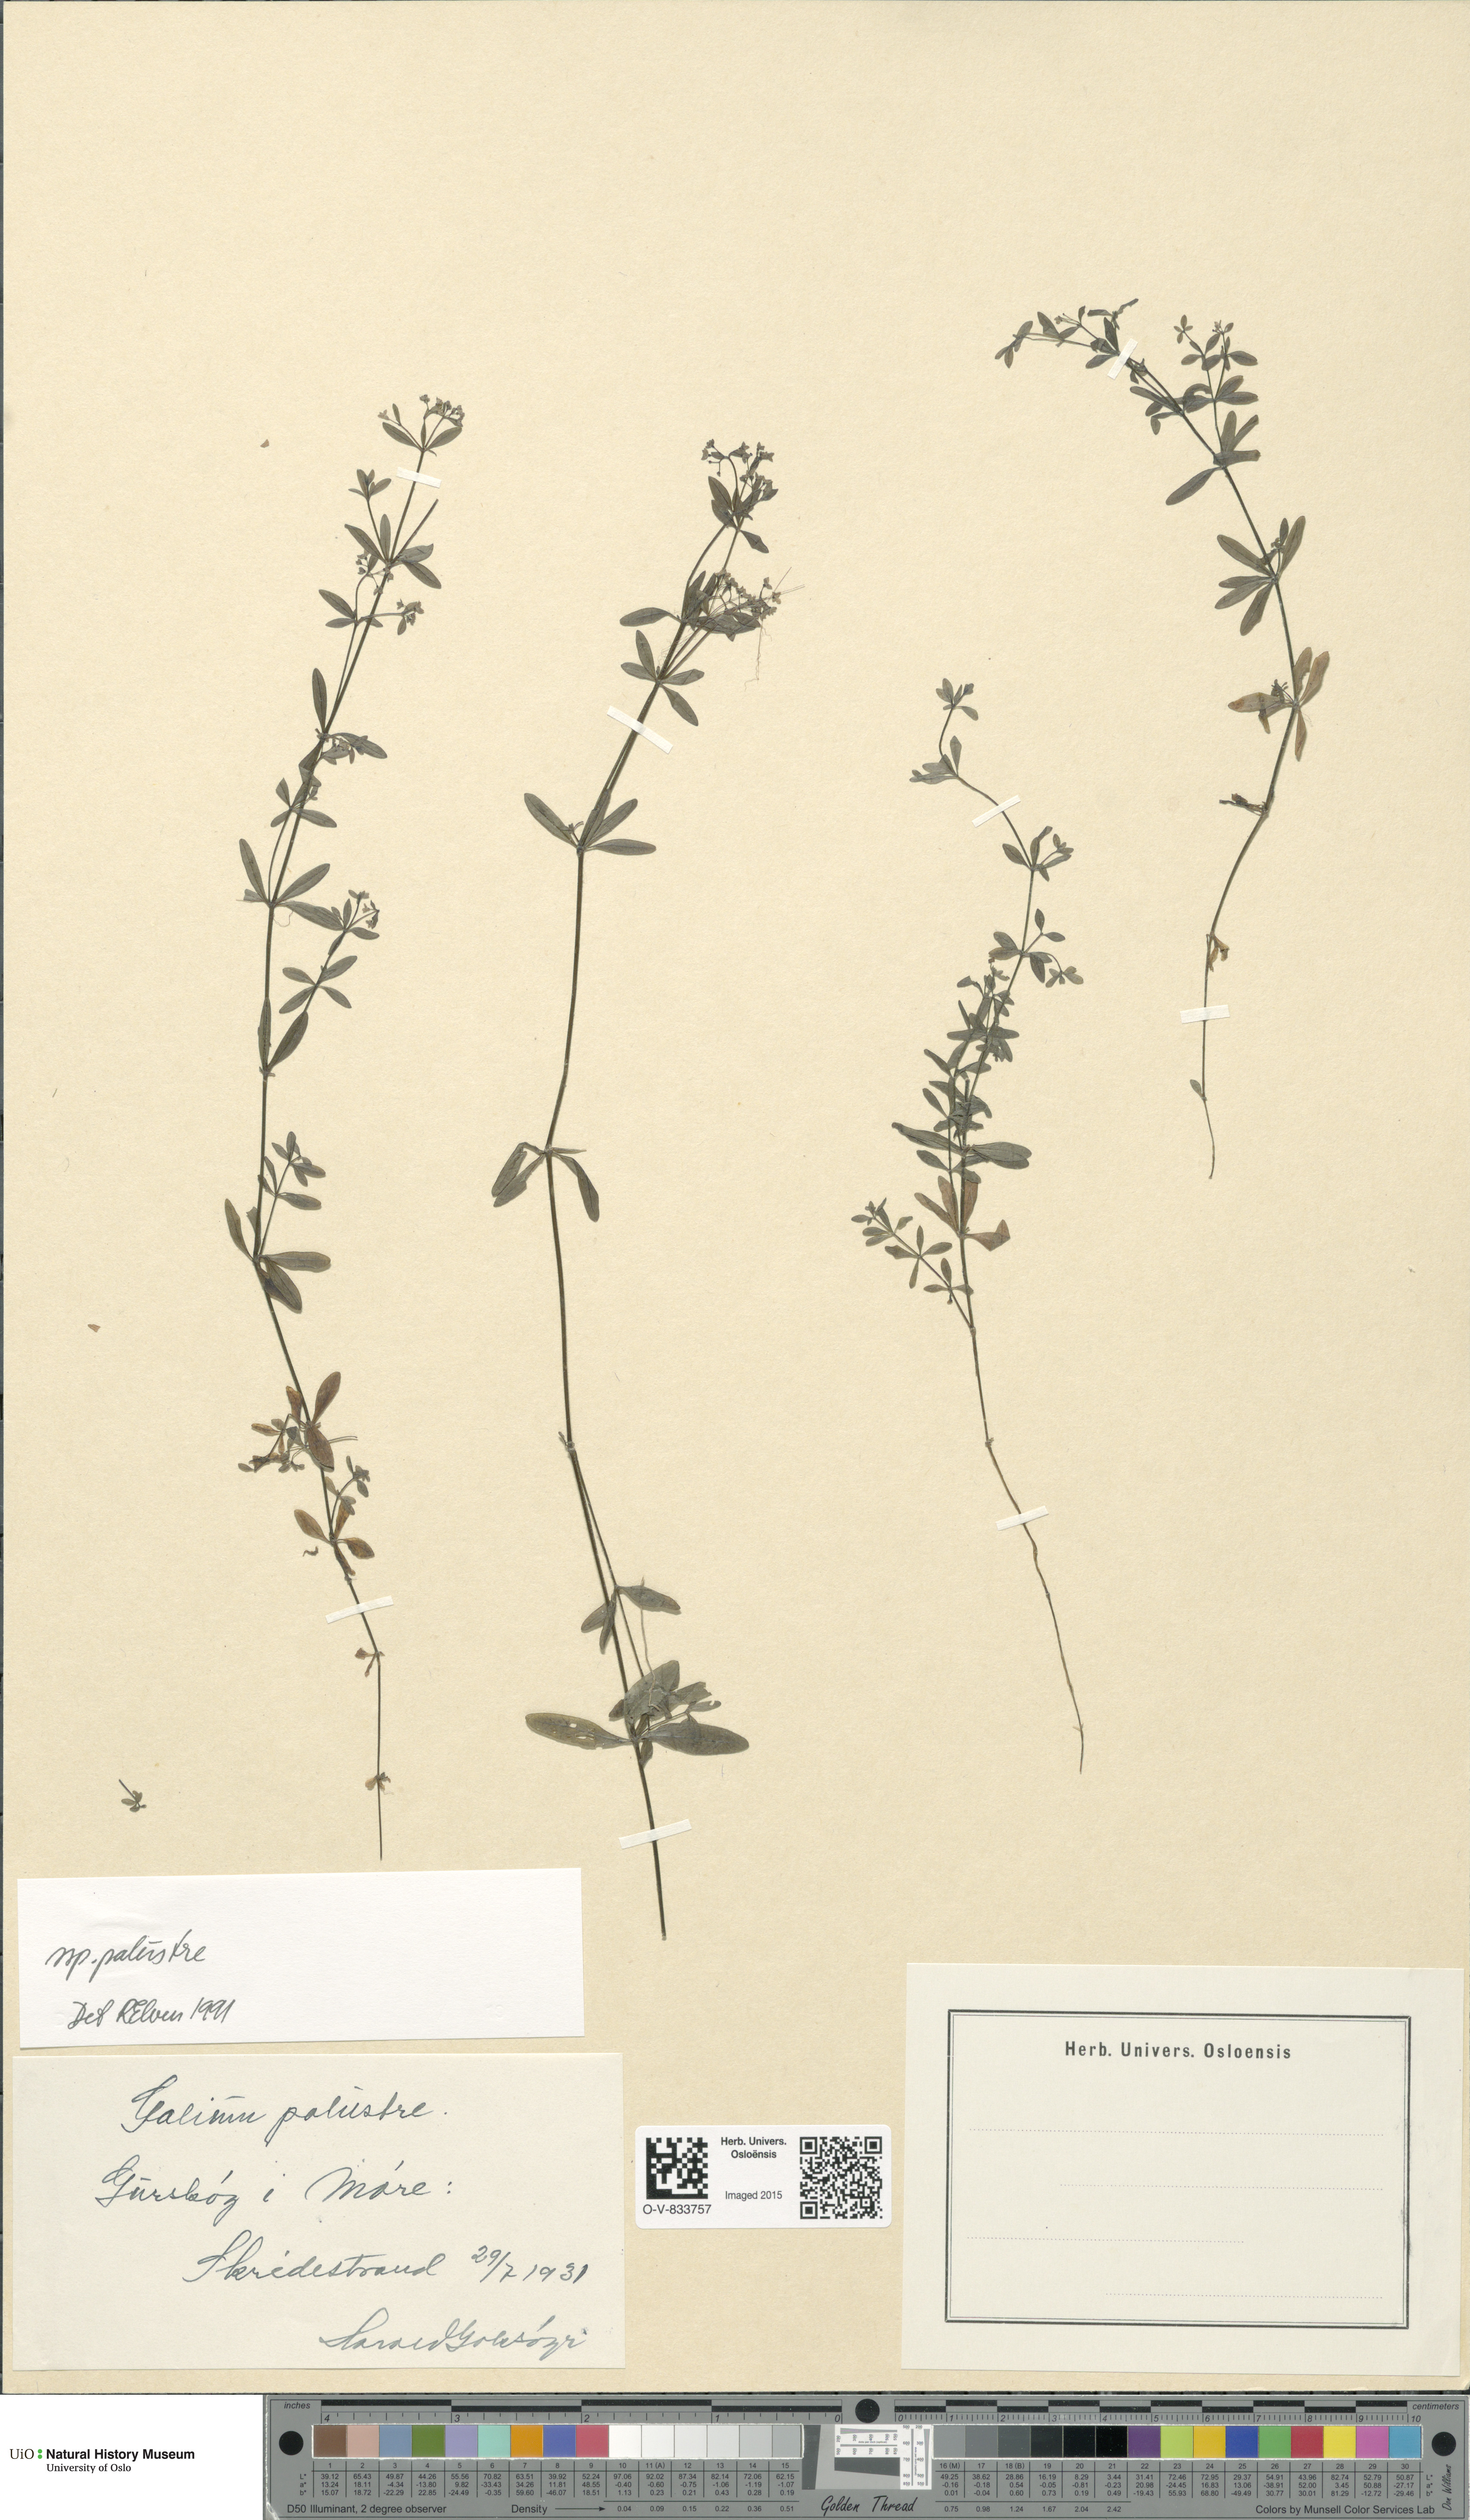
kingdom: Plantae
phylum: Tracheophyta
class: Magnoliopsida
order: Gentianales
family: Rubiaceae
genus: Galium
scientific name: Galium palustre
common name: Common marsh-bedstraw
